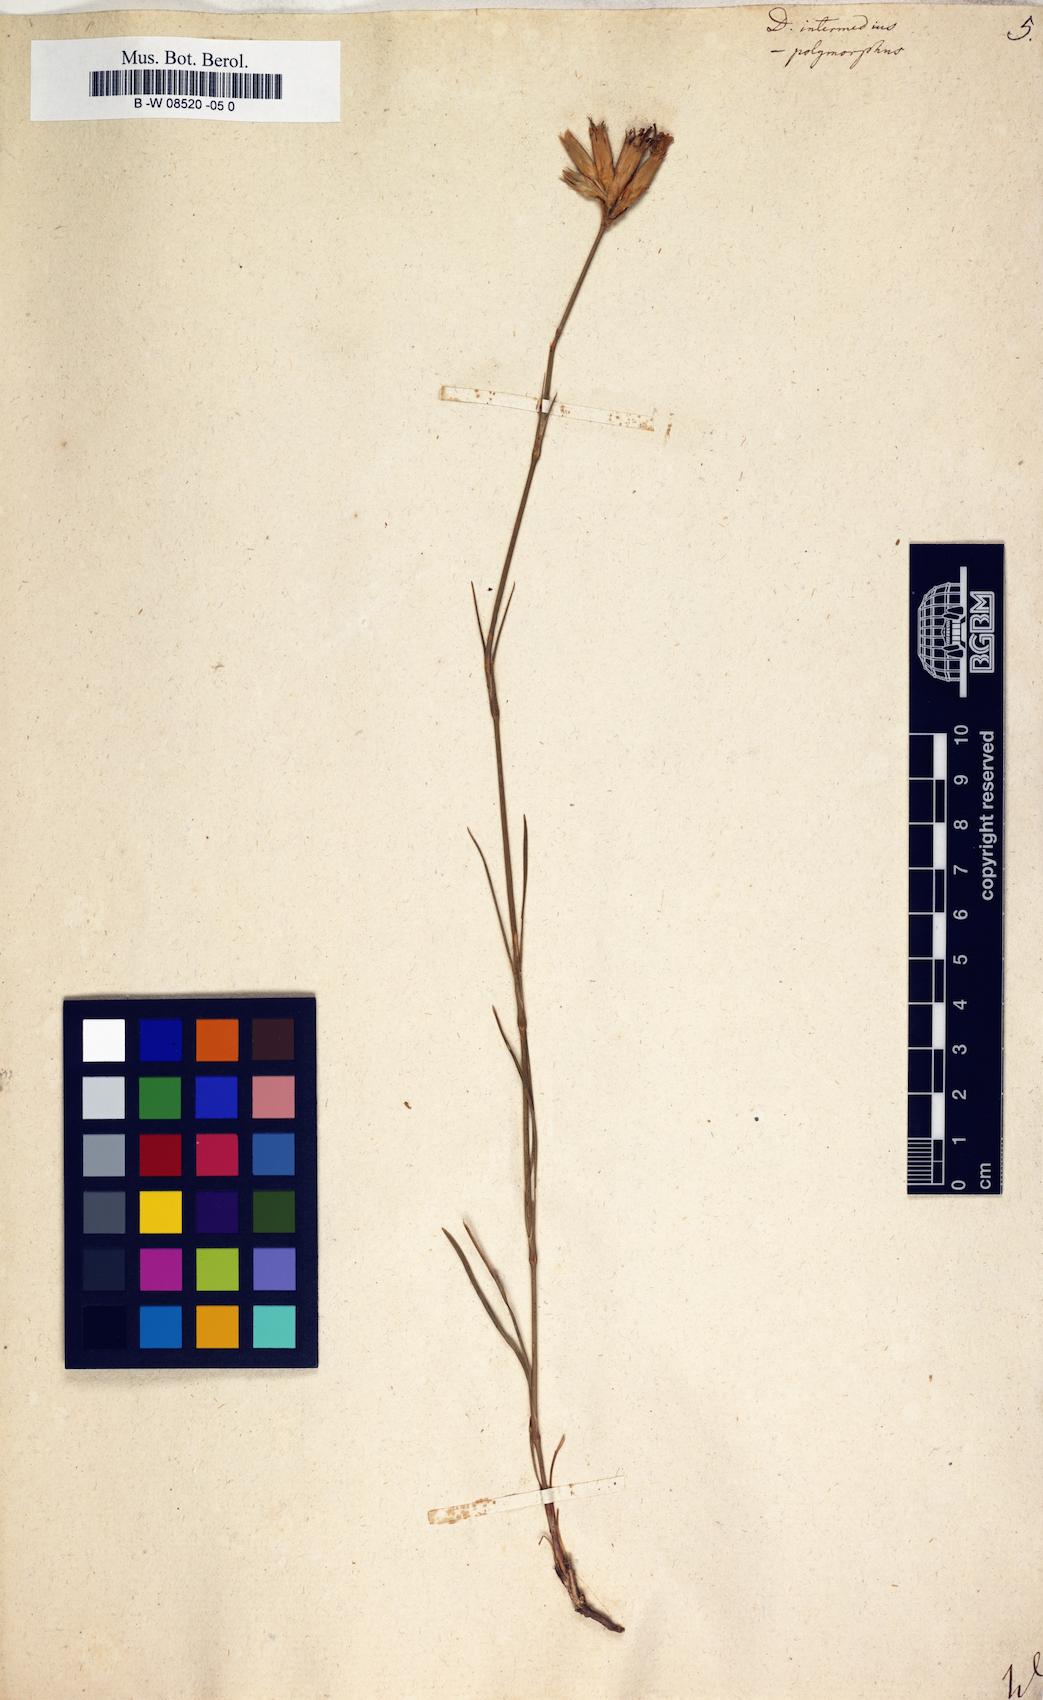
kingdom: Plantae
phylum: Tracheophyta
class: Magnoliopsida
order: Caryophyllales
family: Caryophyllaceae
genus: Dianthus
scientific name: Dianthus
